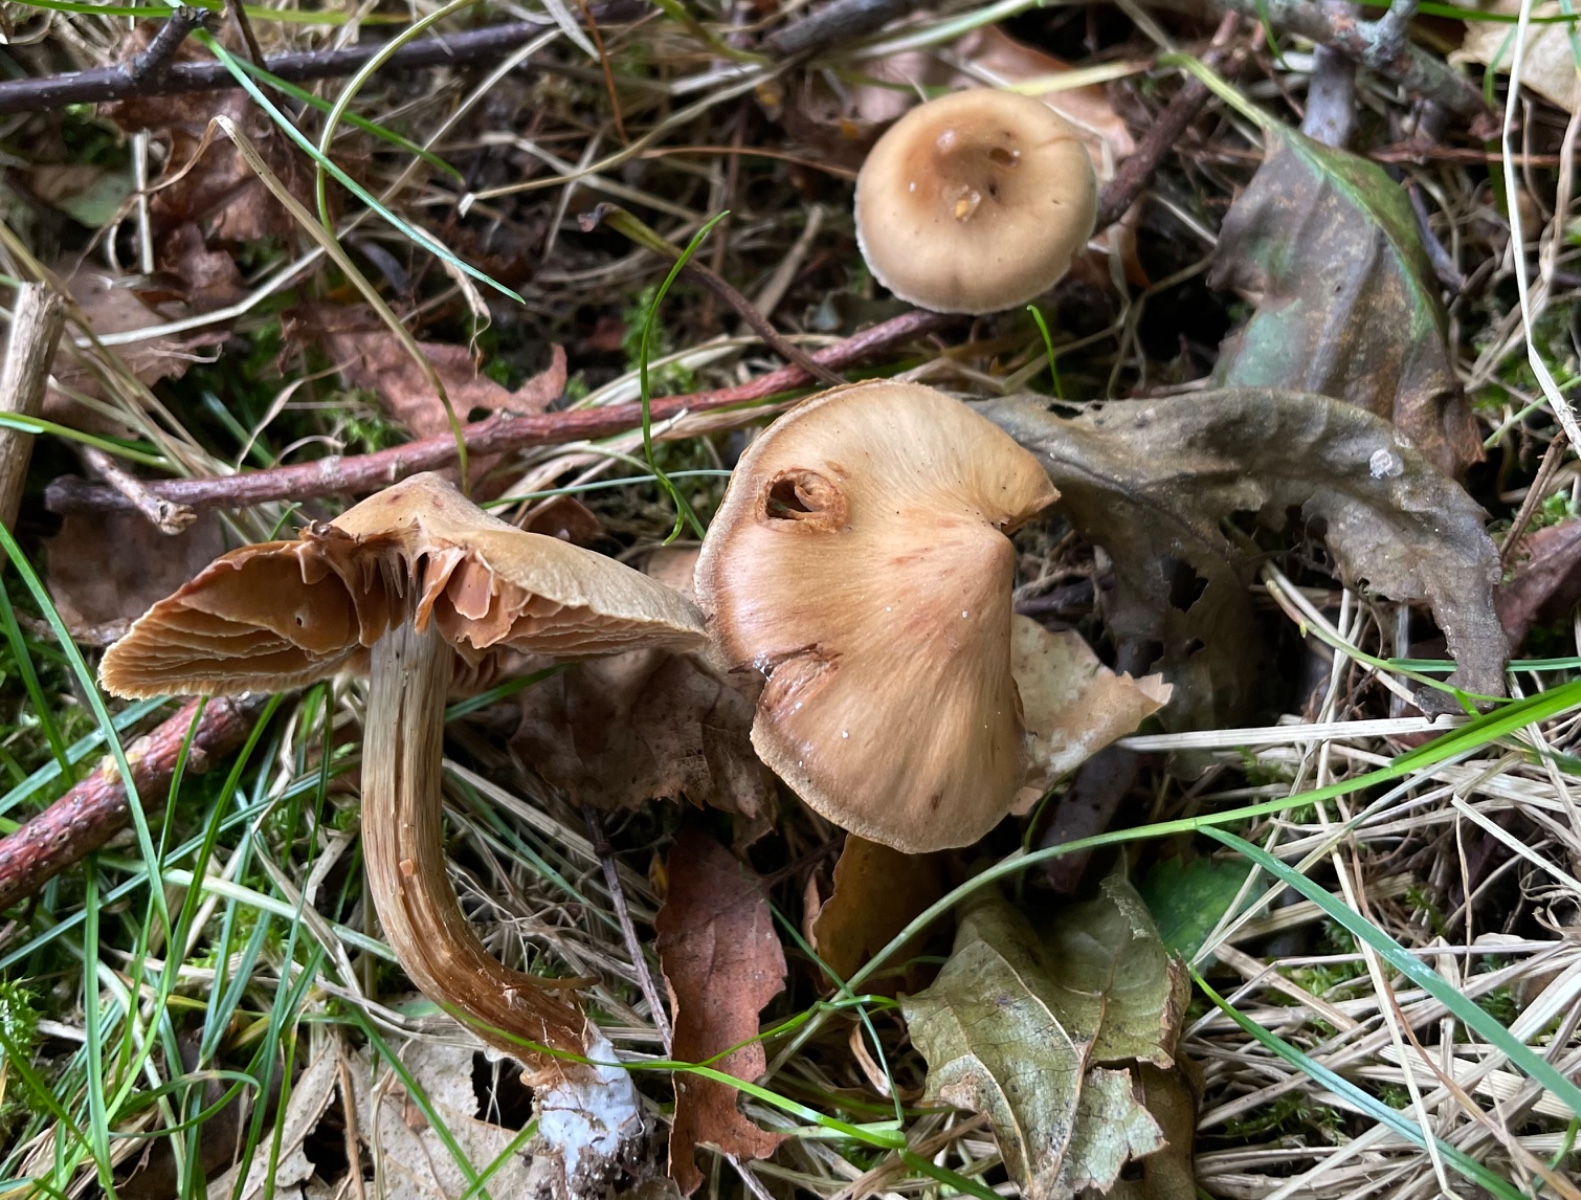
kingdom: Fungi
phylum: Basidiomycota
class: Agaricomycetes
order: Agaricales
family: Cortinariaceae
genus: Cortinarius
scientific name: Cortinarius
